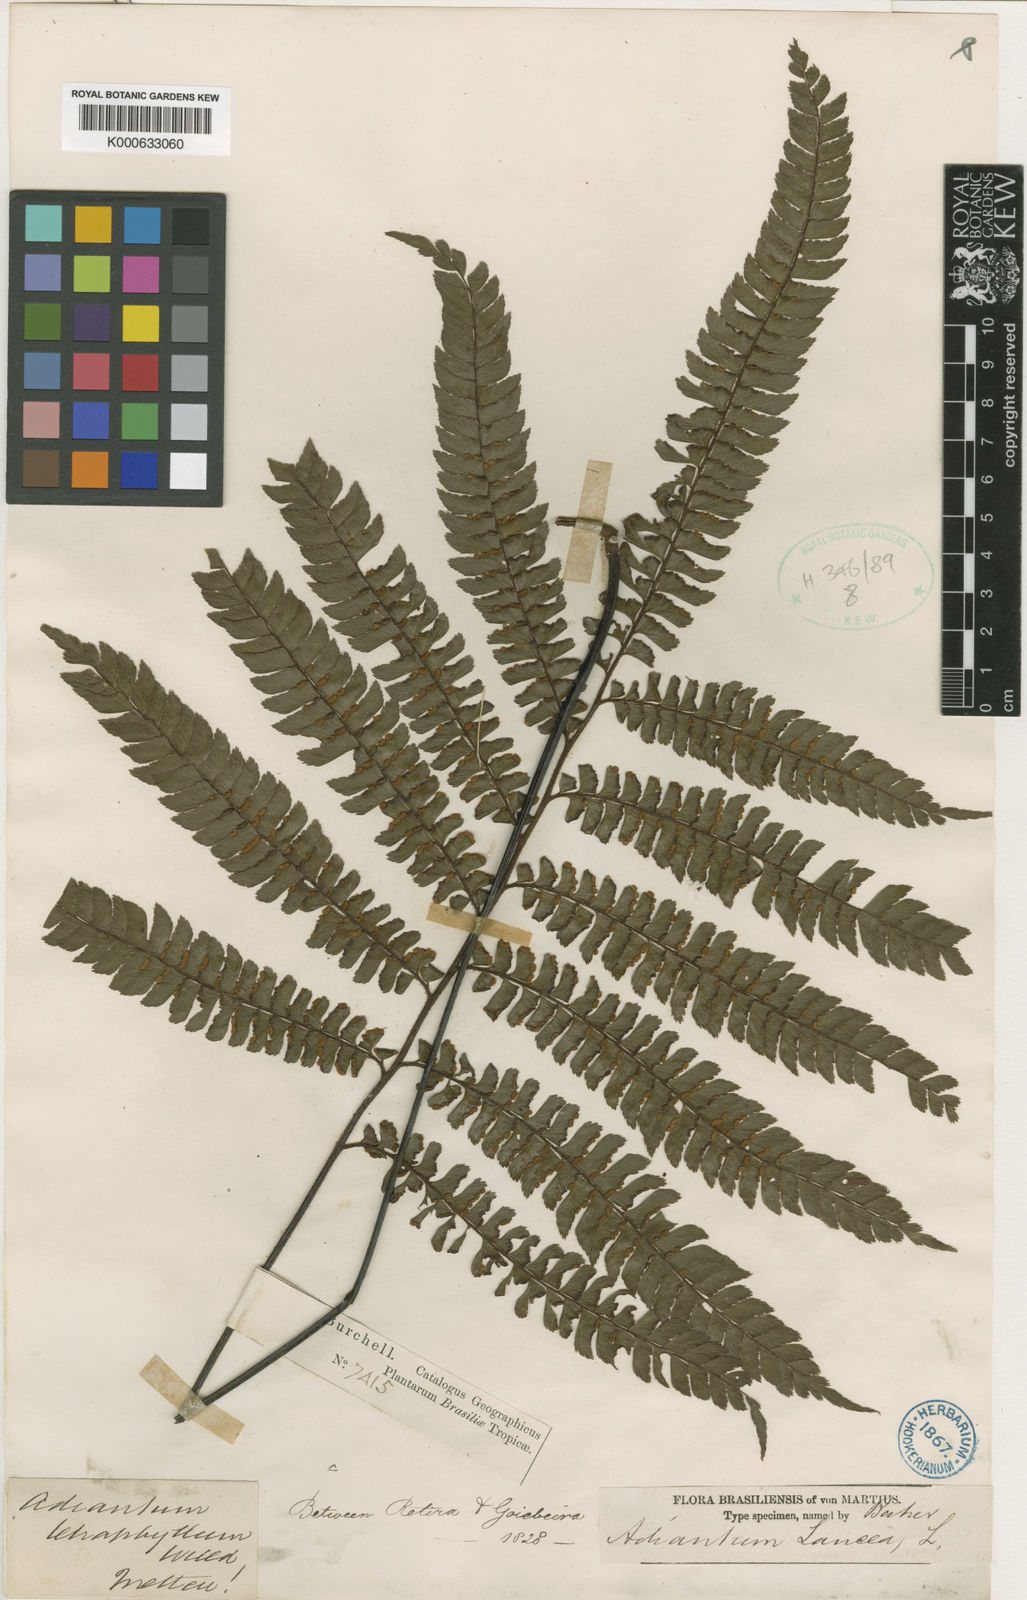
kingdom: Plantae
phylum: Tracheophyta
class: Polypodiopsida
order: Polypodiales
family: Pteridaceae
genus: Adiantum
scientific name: Adiantum tetraphyllum
